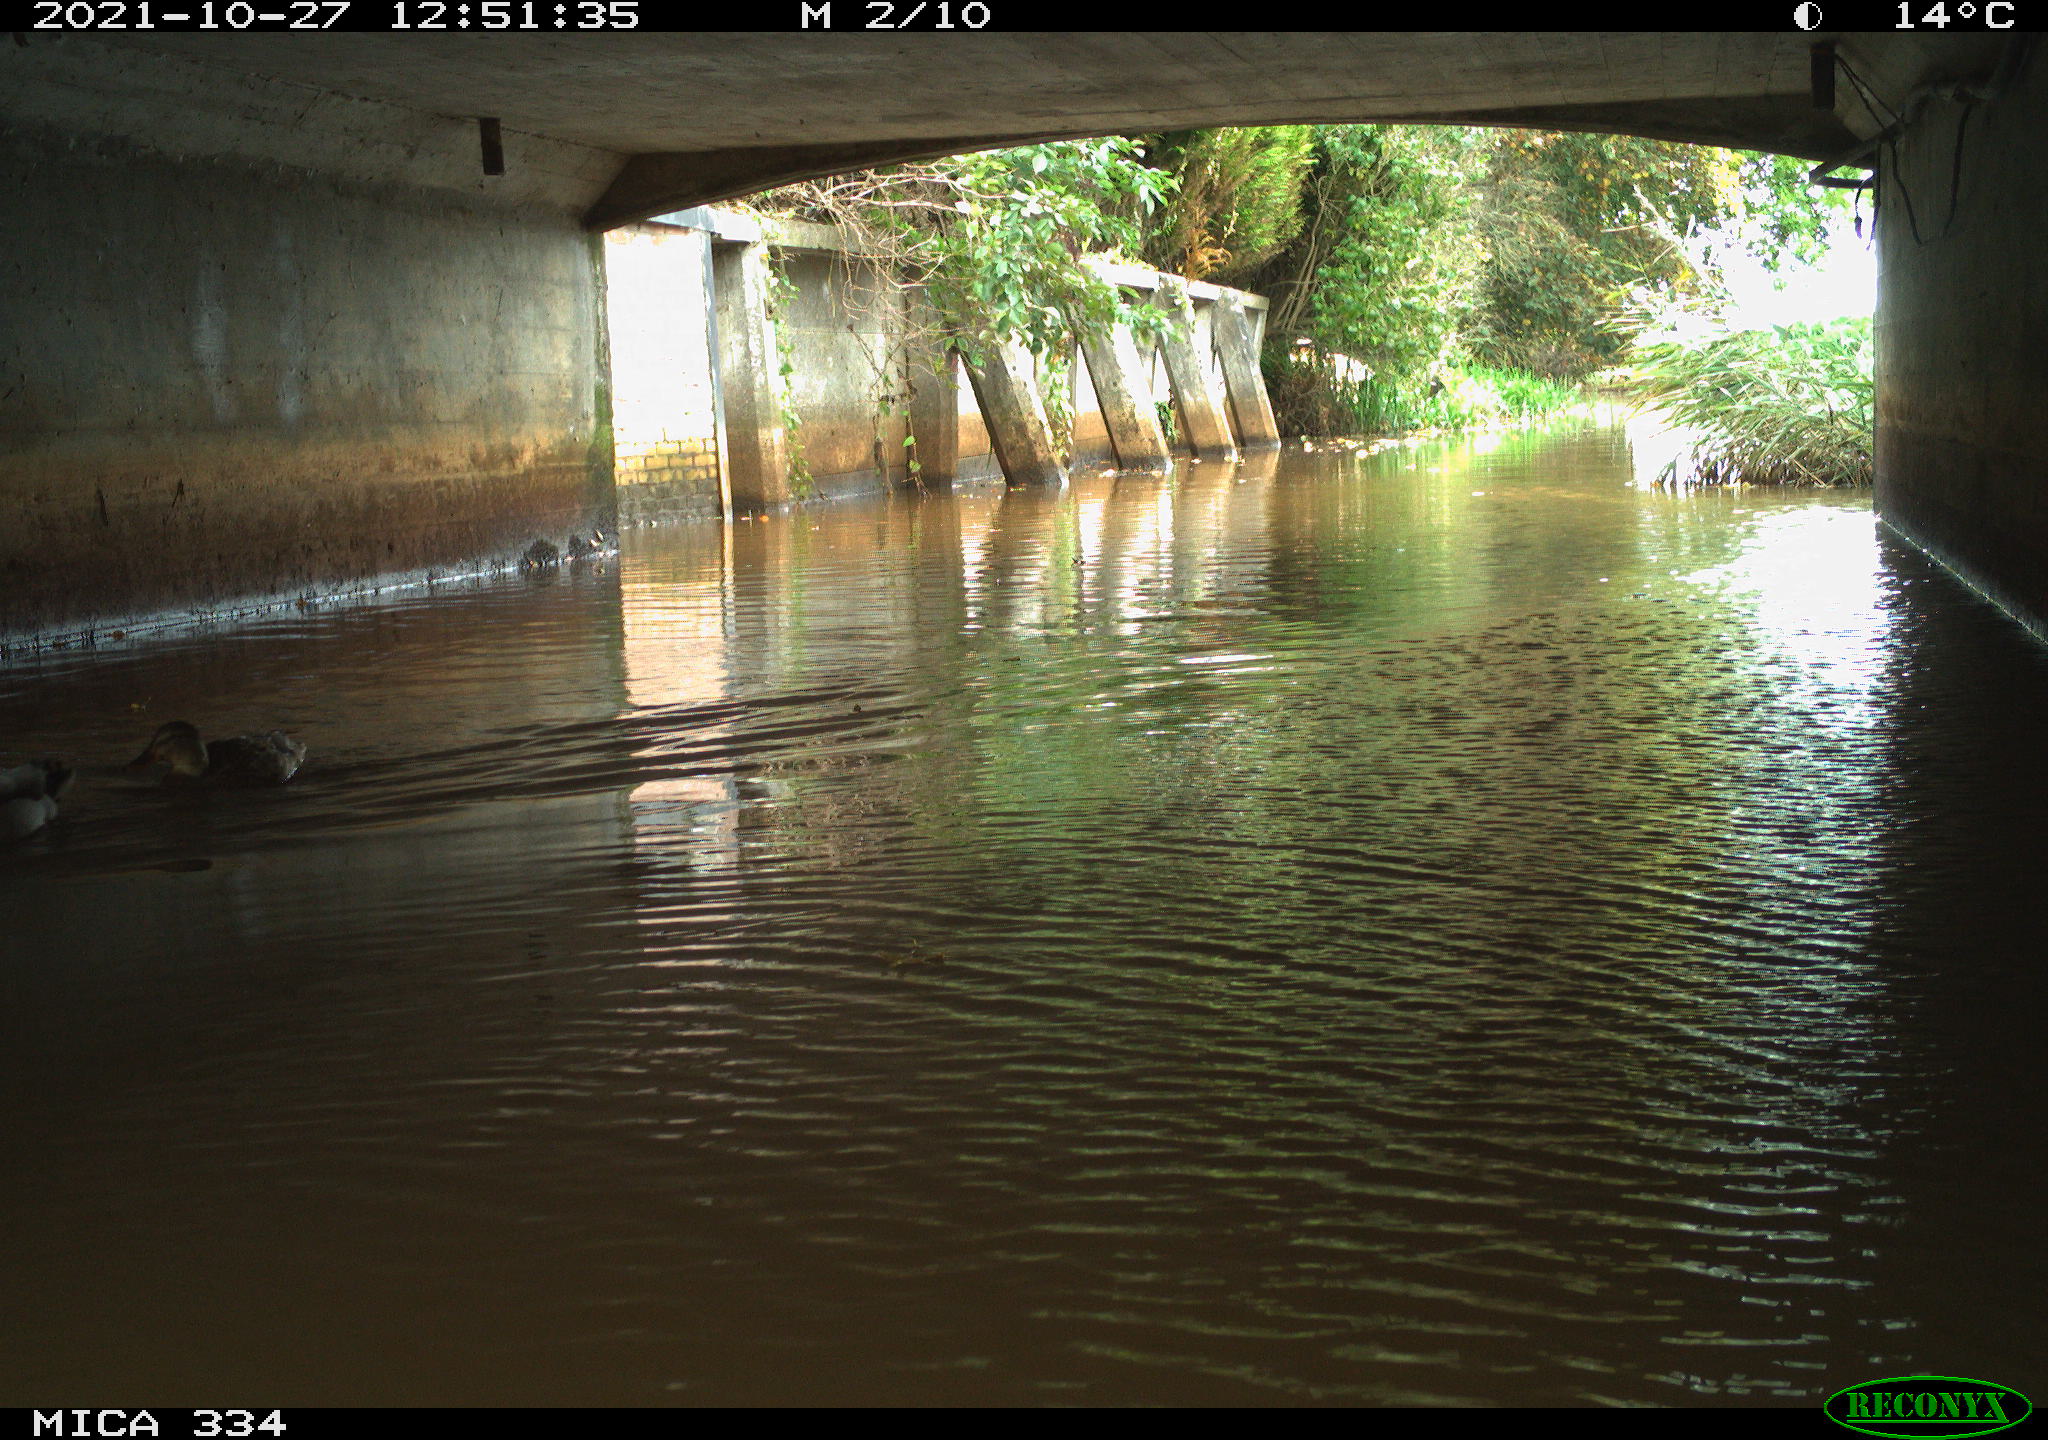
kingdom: Animalia
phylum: Chordata
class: Aves
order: Anseriformes
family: Anatidae
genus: Anas
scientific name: Anas platyrhynchos
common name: Mallard
